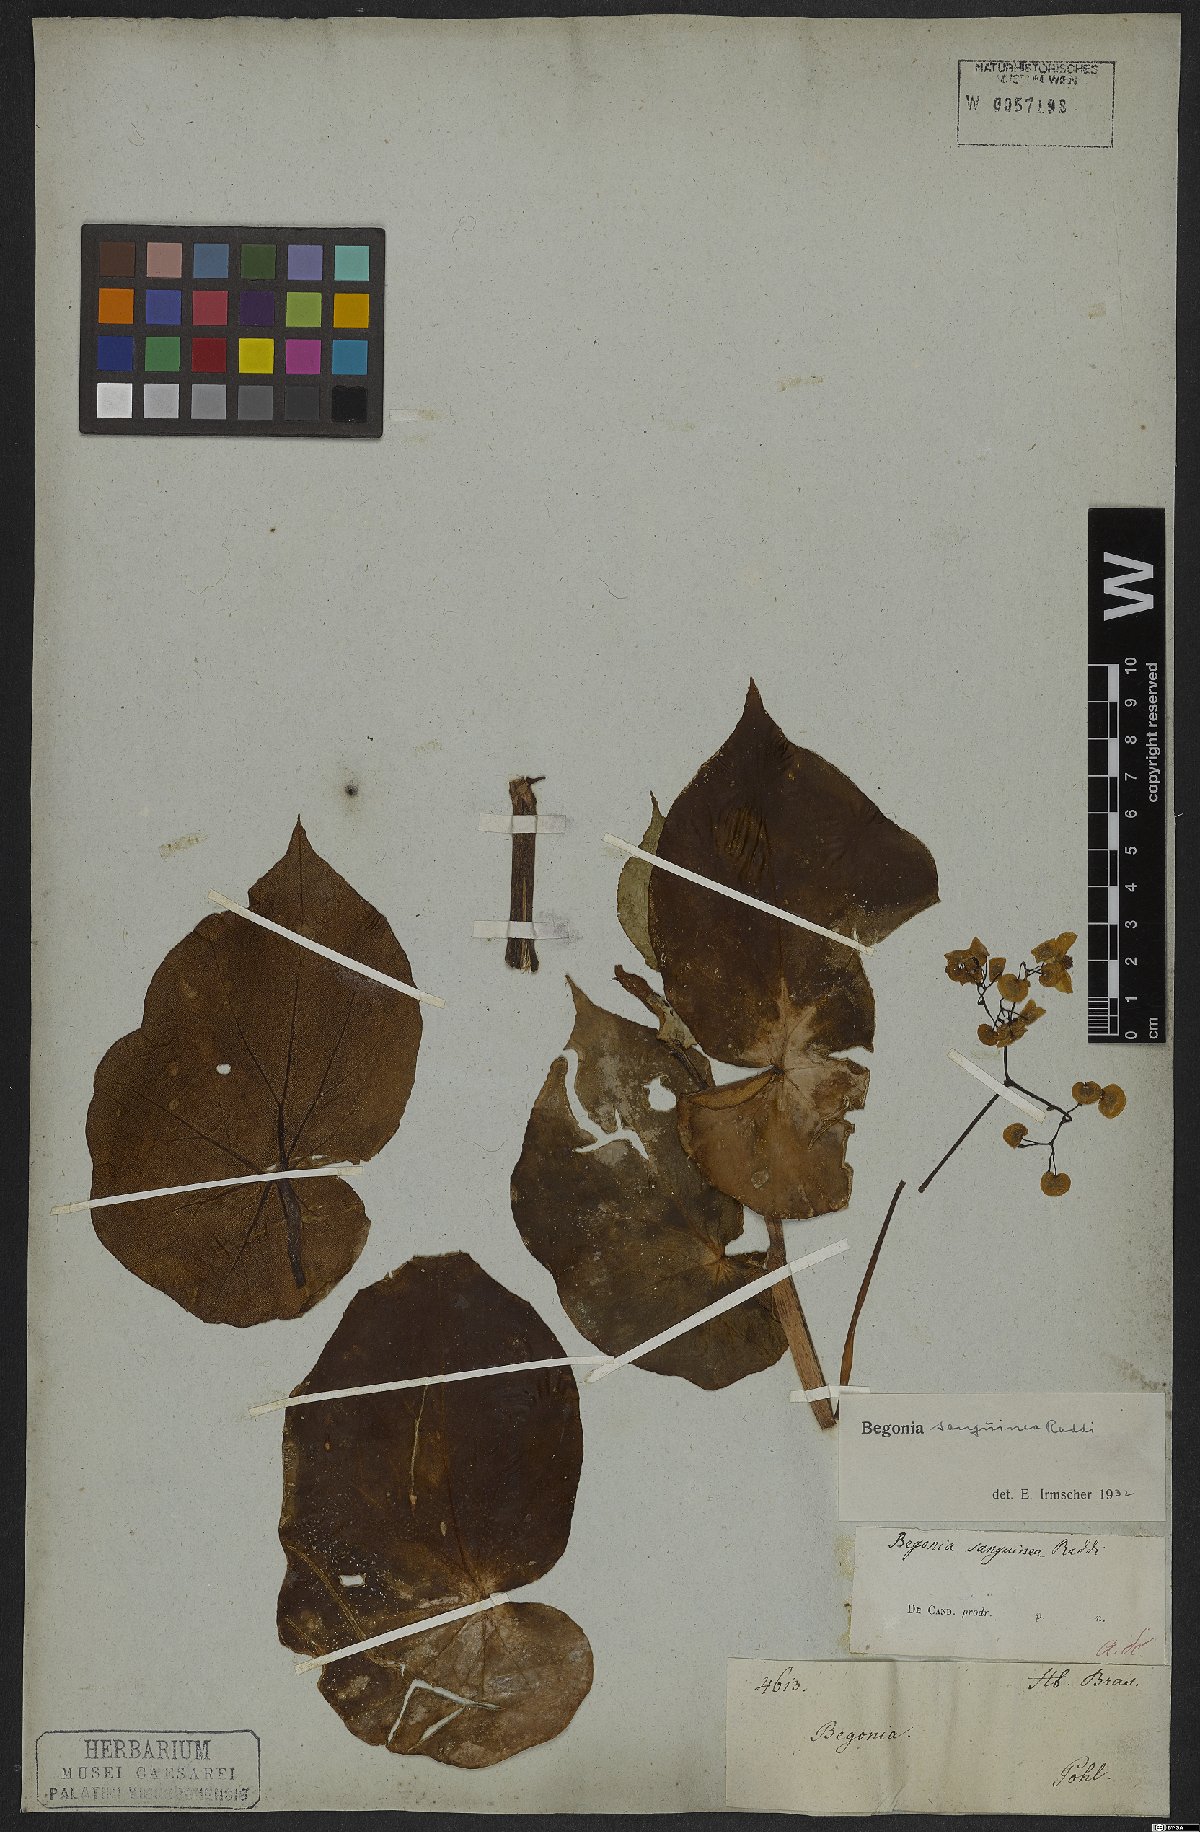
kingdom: Plantae
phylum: Tracheophyta
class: Magnoliopsida
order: Cucurbitales
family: Begoniaceae
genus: Begonia
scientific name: Begonia sanguinea
